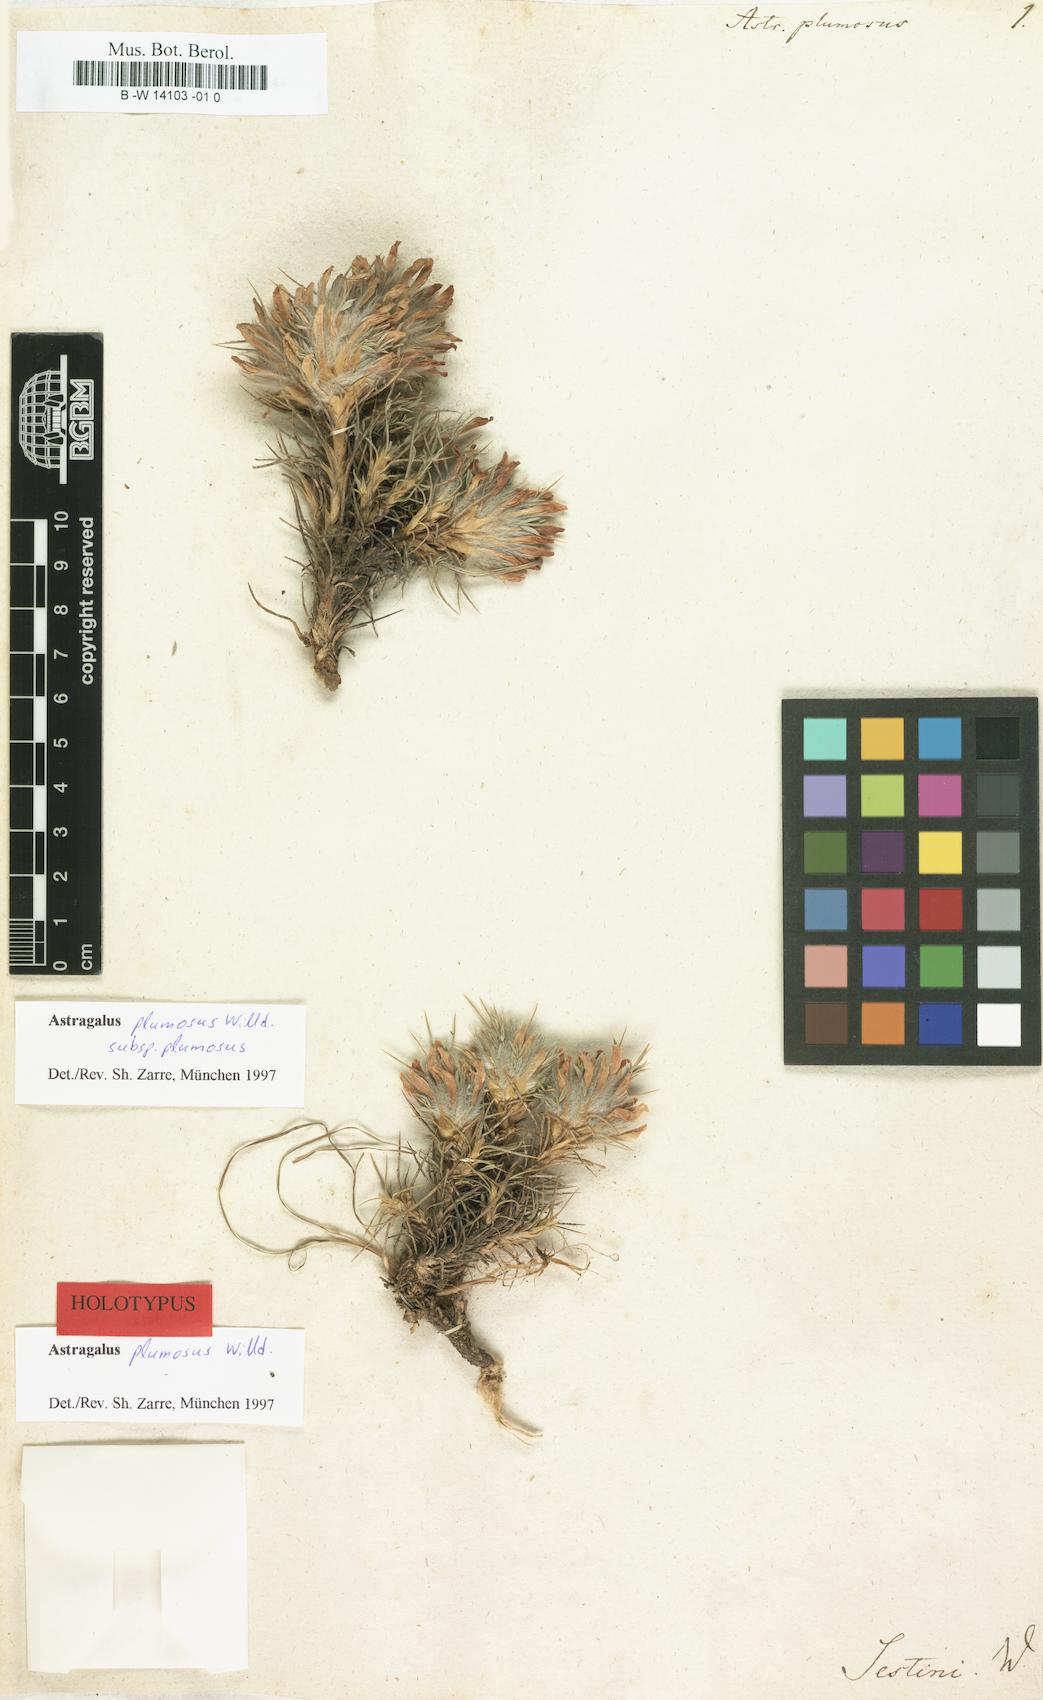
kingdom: Plantae
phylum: Tracheophyta
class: Magnoliopsida
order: Fabales
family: Fabaceae
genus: Astragalus
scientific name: Astragalus plumosus
